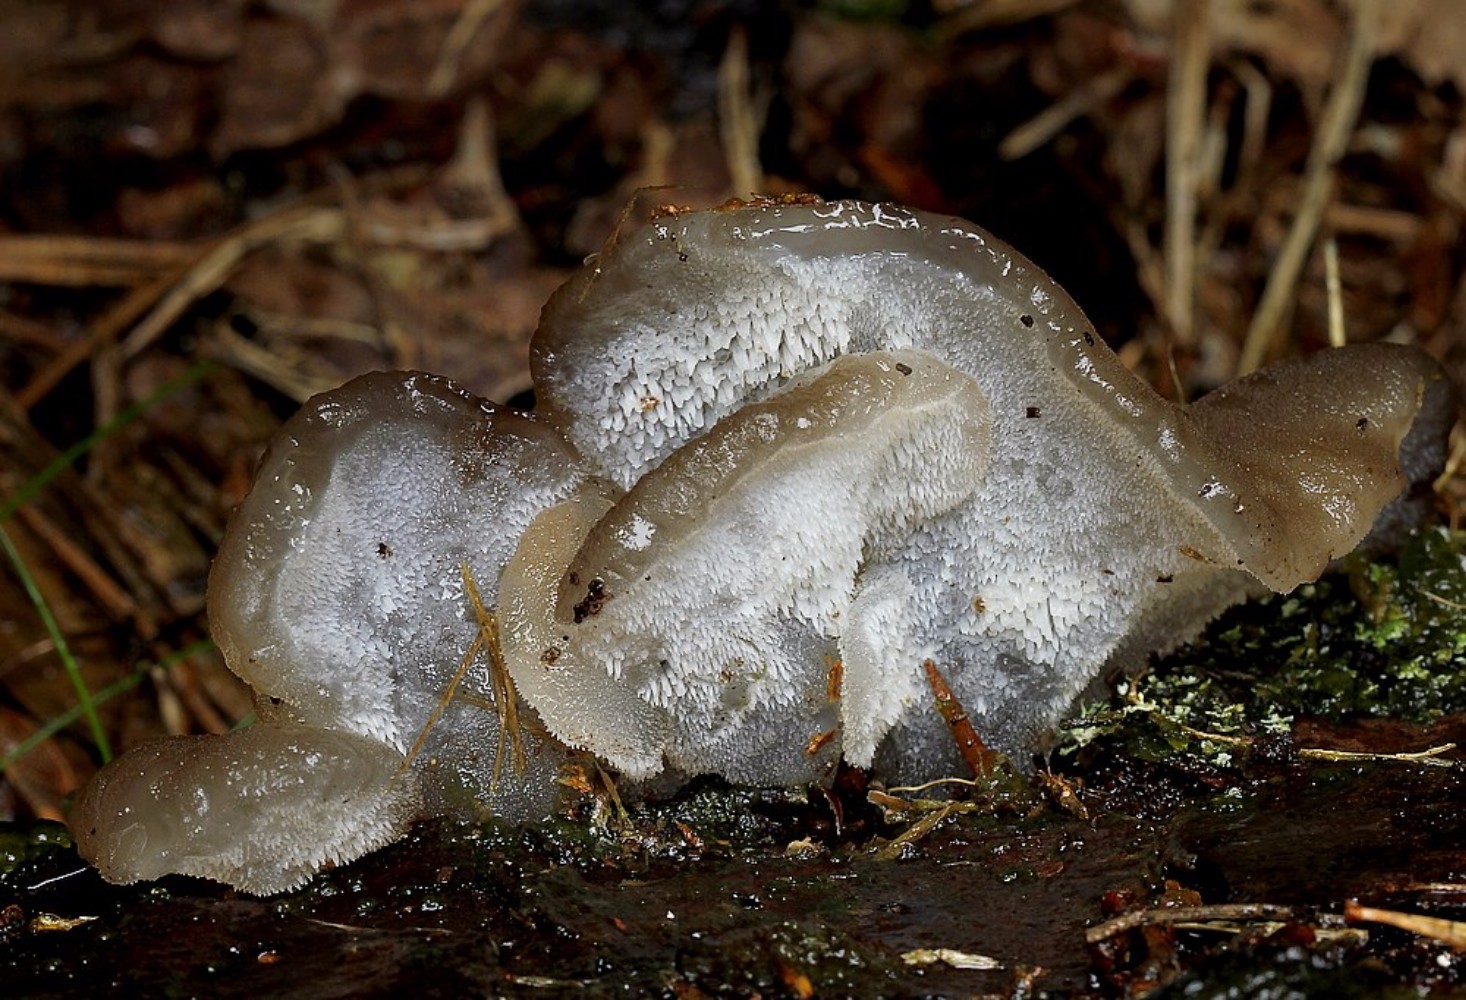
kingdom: Fungi
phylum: Basidiomycota
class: Agaricomycetes
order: Auriculariales
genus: Pseudohydnum
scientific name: Pseudohydnum gelatinosum
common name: bævretand
